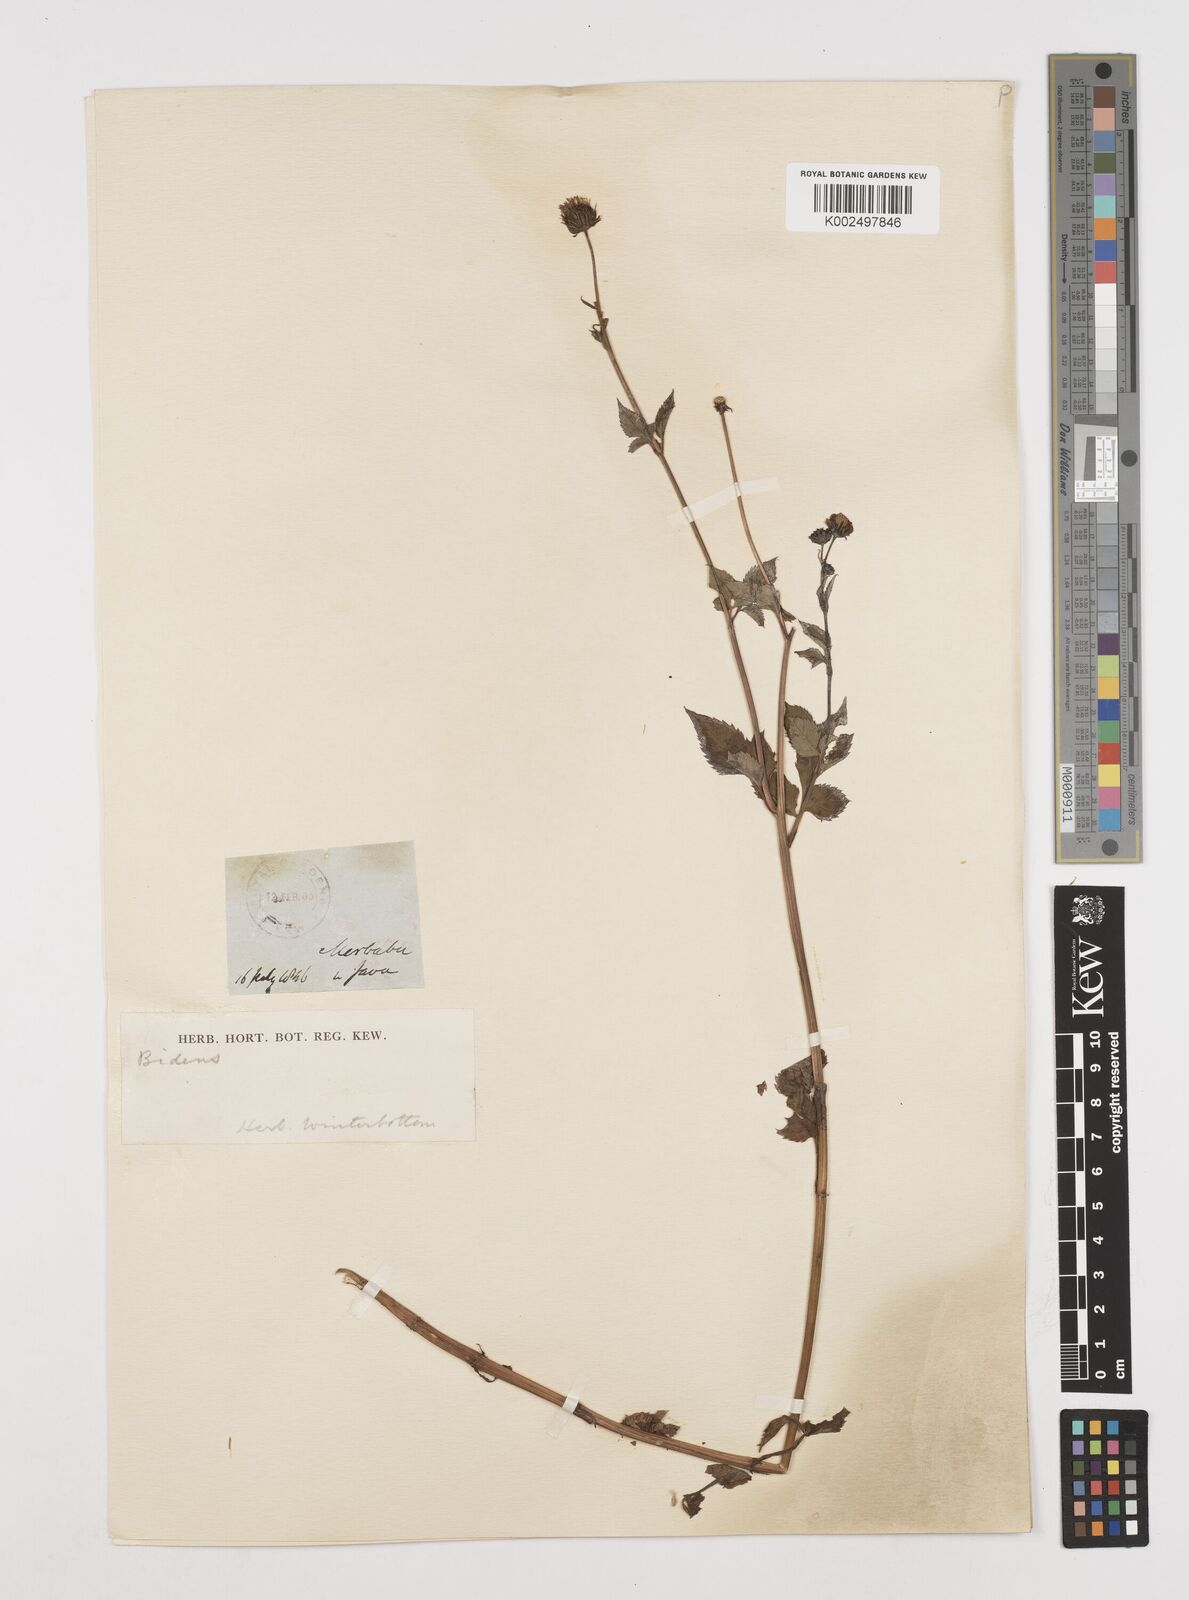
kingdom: Plantae
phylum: Tracheophyta
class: Magnoliopsida
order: Asterales
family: Asteraceae
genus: Bidens
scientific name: Bidens biternata
